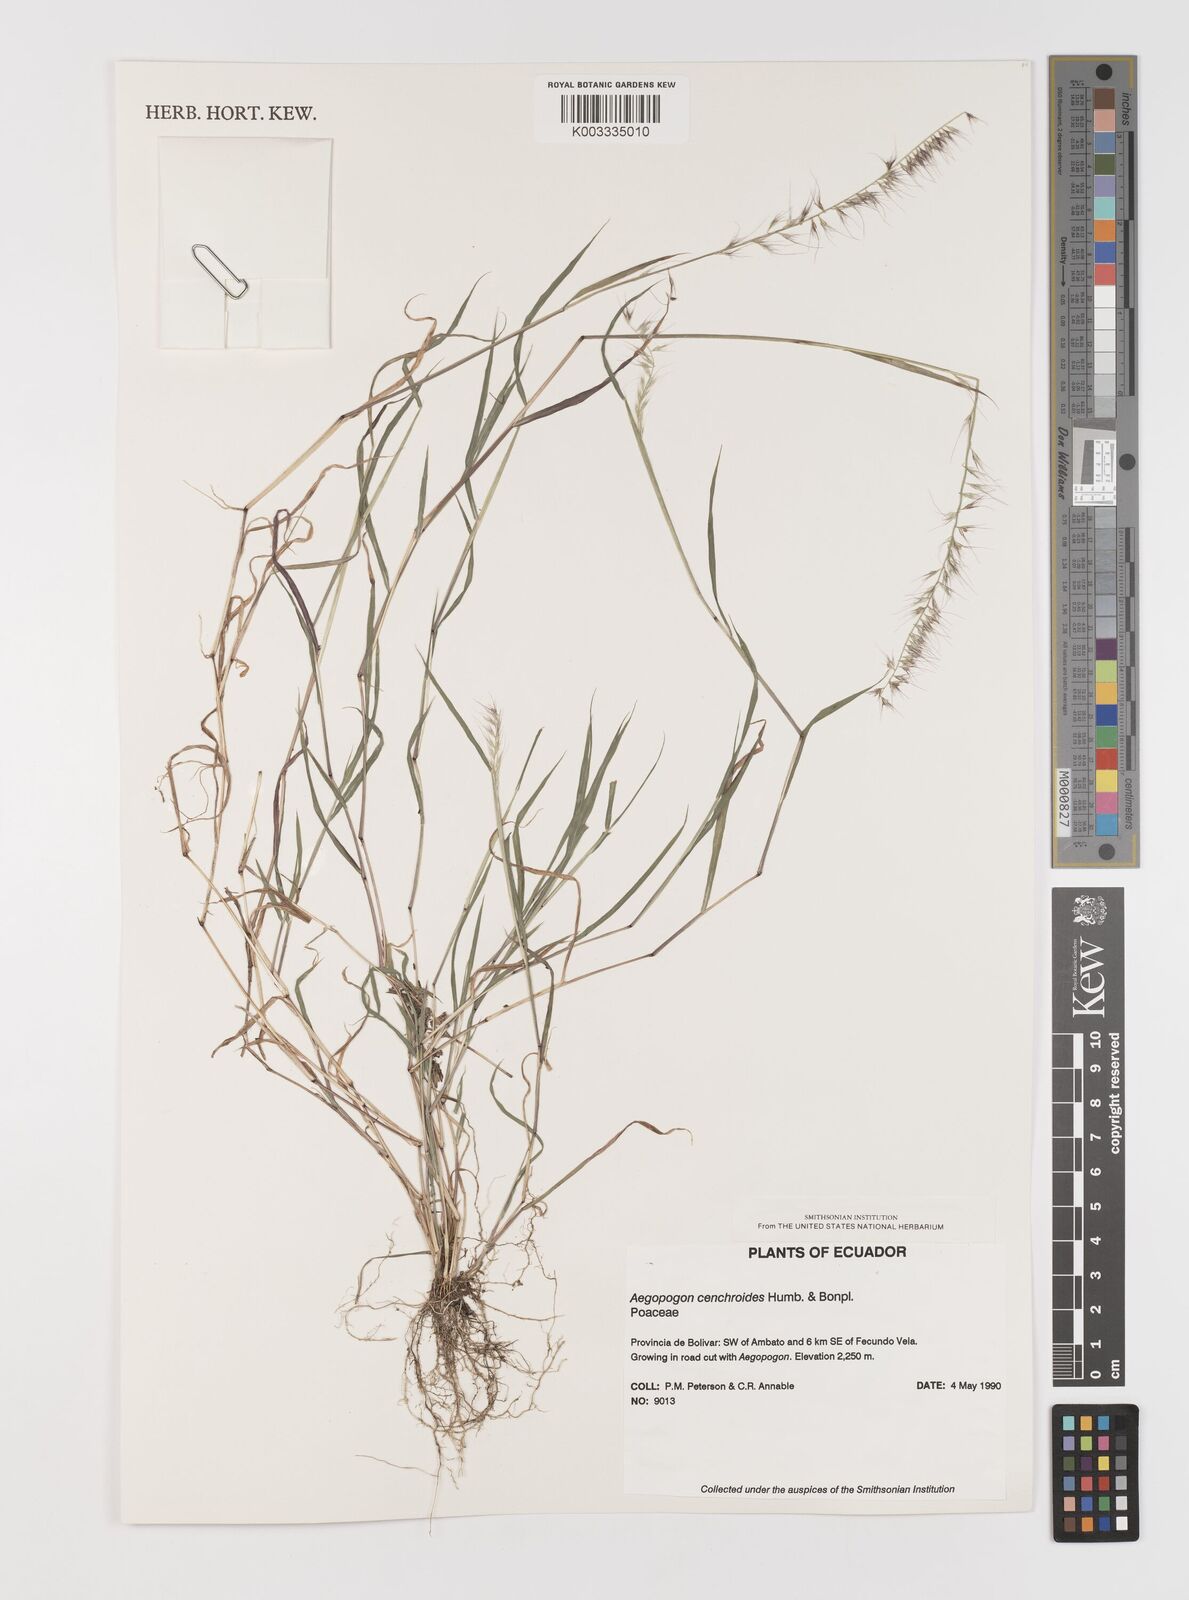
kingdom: Plantae
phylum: Tracheophyta
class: Liliopsida
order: Poales
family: Poaceae
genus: Muhlenbergia
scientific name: Muhlenbergia cenchroides
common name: Relaxgrass
